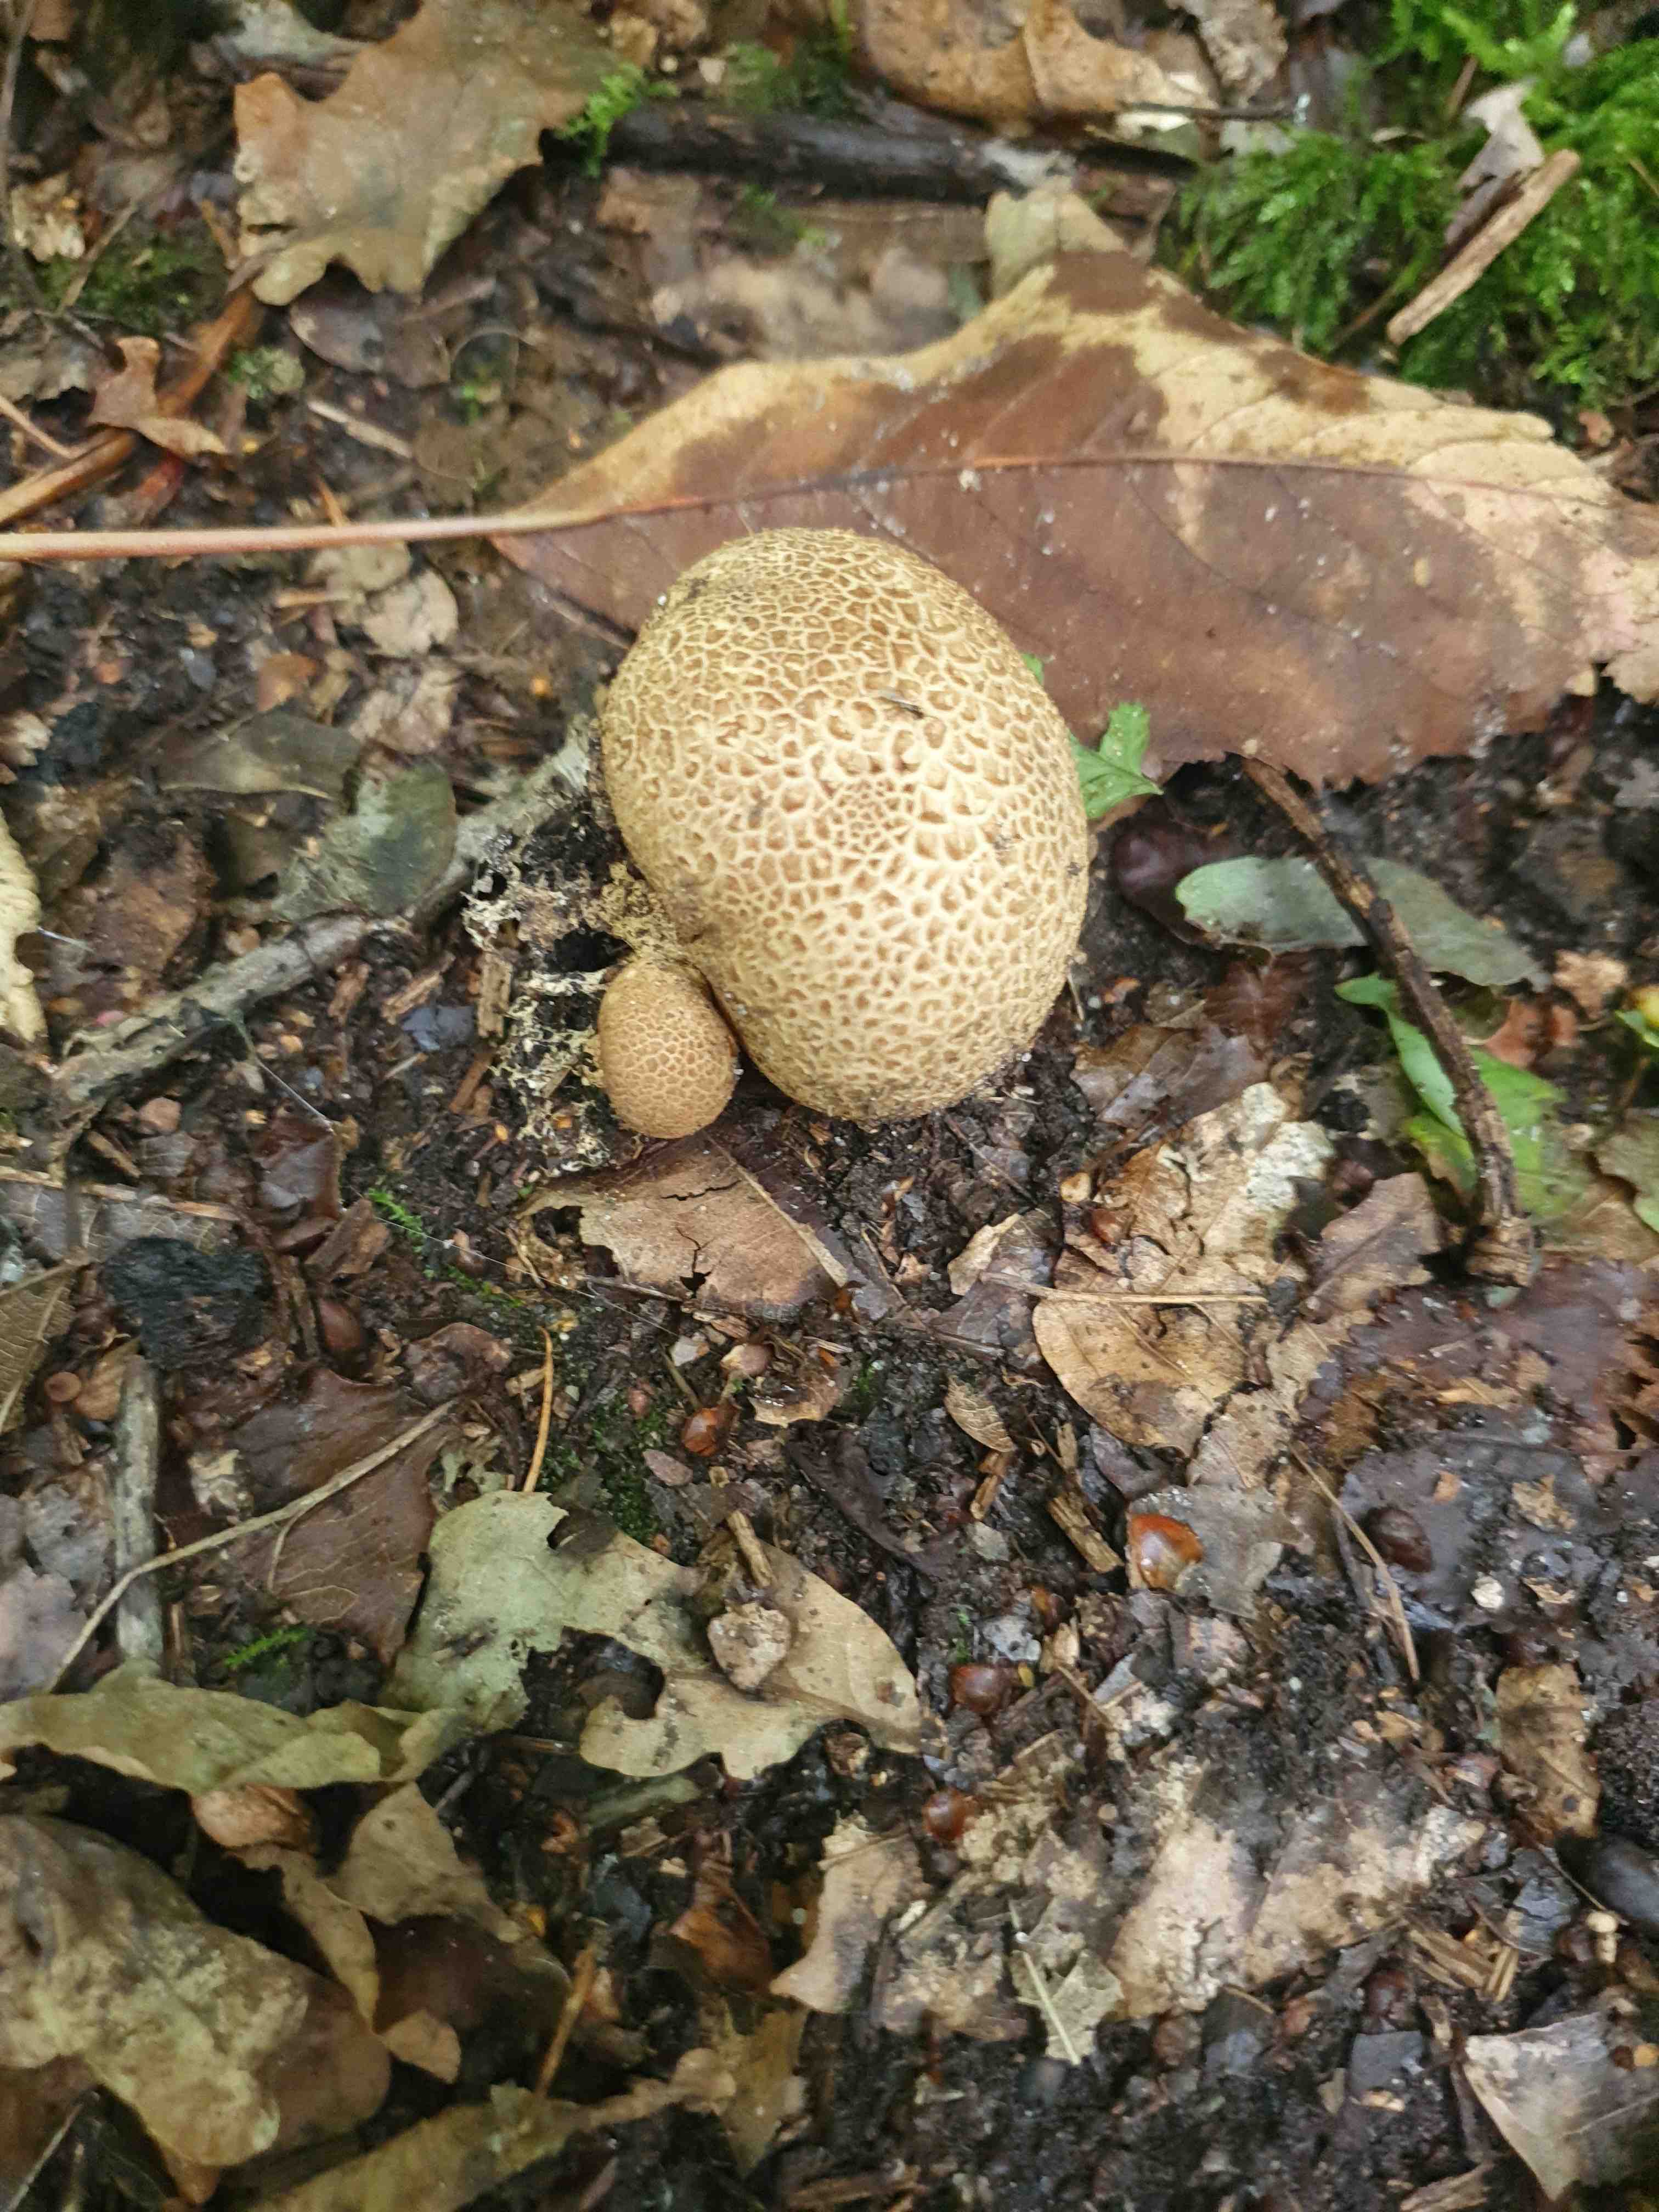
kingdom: Fungi
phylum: Basidiomycota
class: Agaricomycetes
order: Boletales
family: Sclerodermataceae
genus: Scleroderma
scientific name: Scleroderma citrinum
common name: almindelig bruskbold
